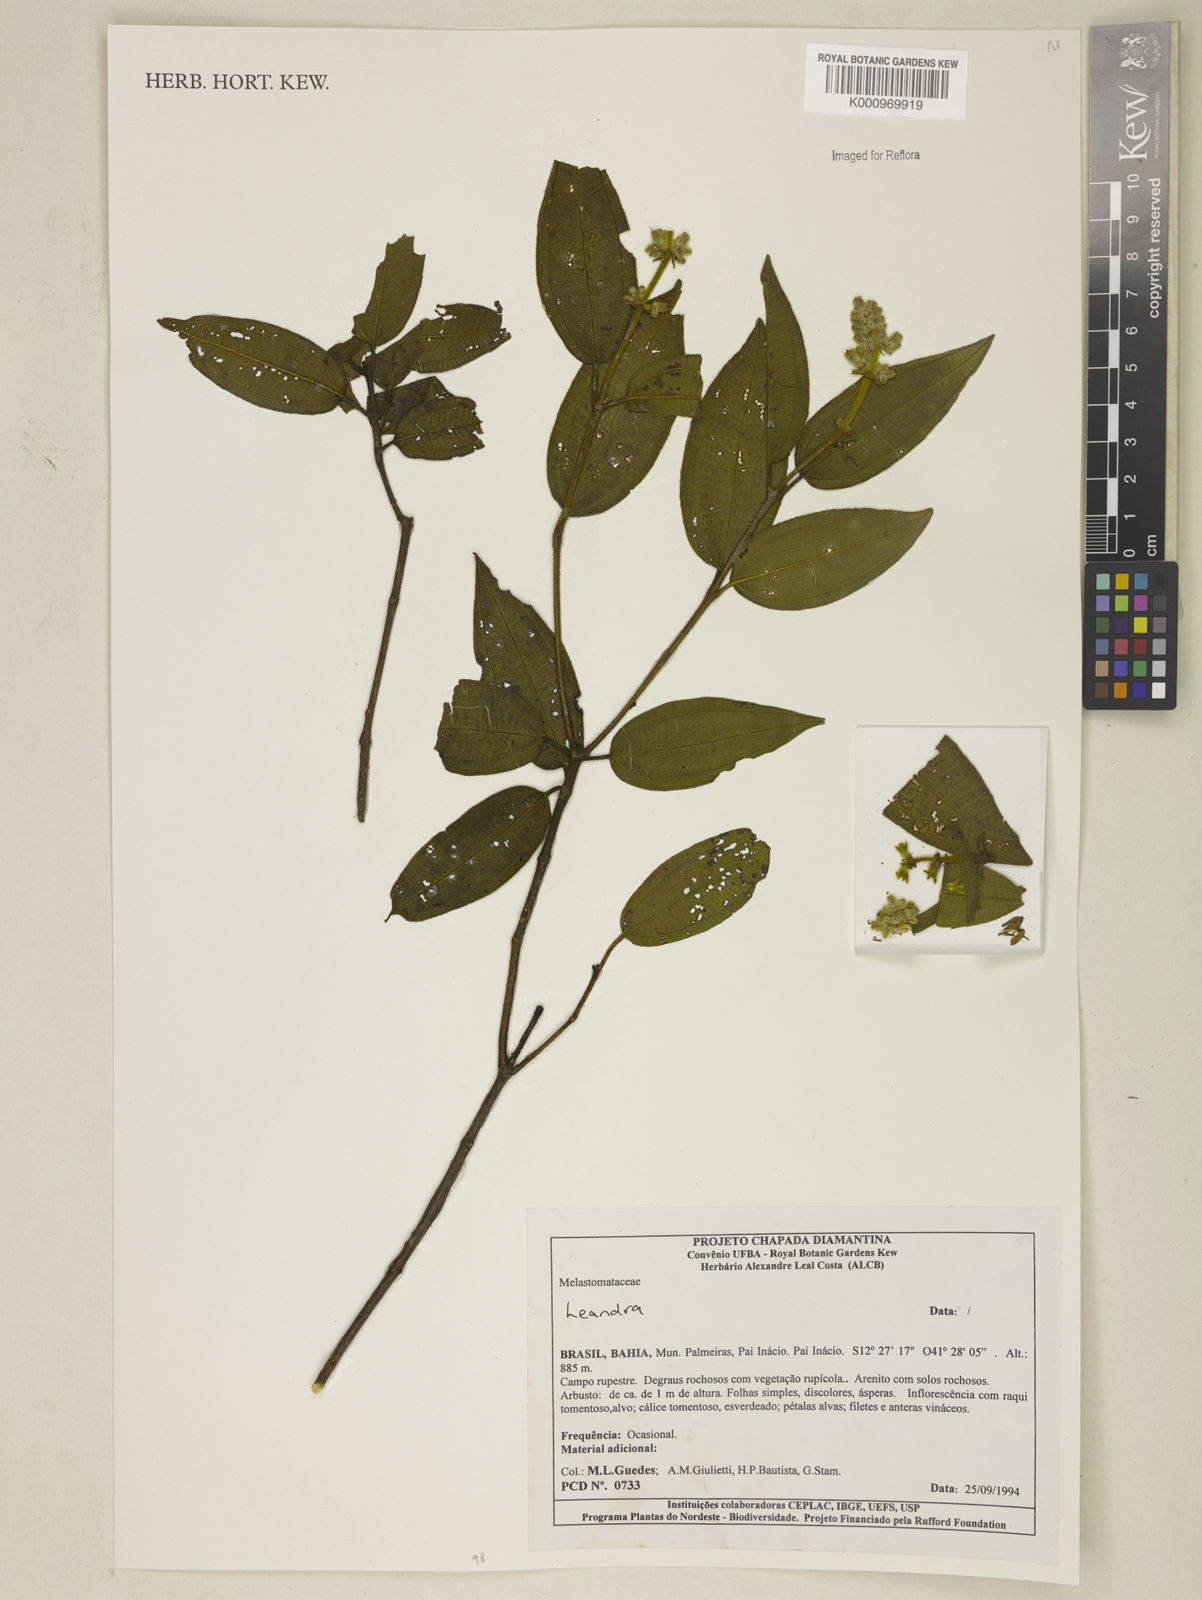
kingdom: Plantae
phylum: Tracheophyta
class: Magnoliopsida
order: Myrtales
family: Melastomataceae
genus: Miconia
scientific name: Miconia
